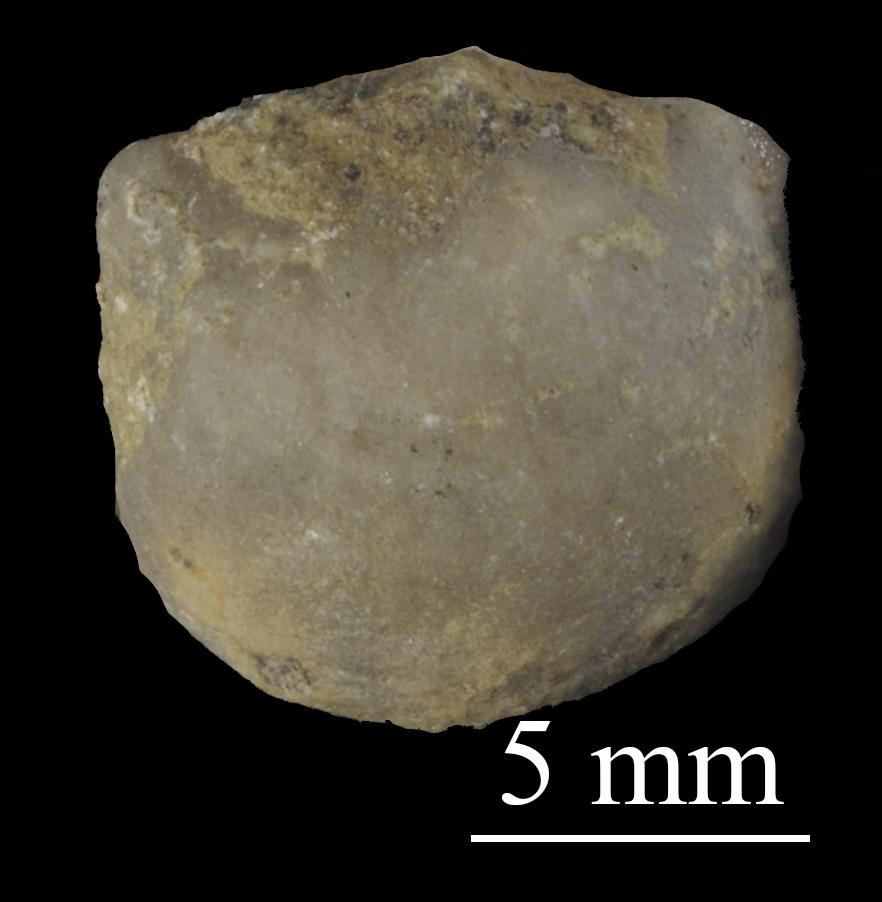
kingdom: Animalia
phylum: Brachiopoda
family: Strophomenidae
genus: Bekkerina
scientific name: Bekkerina Rafinesquina dorsata
